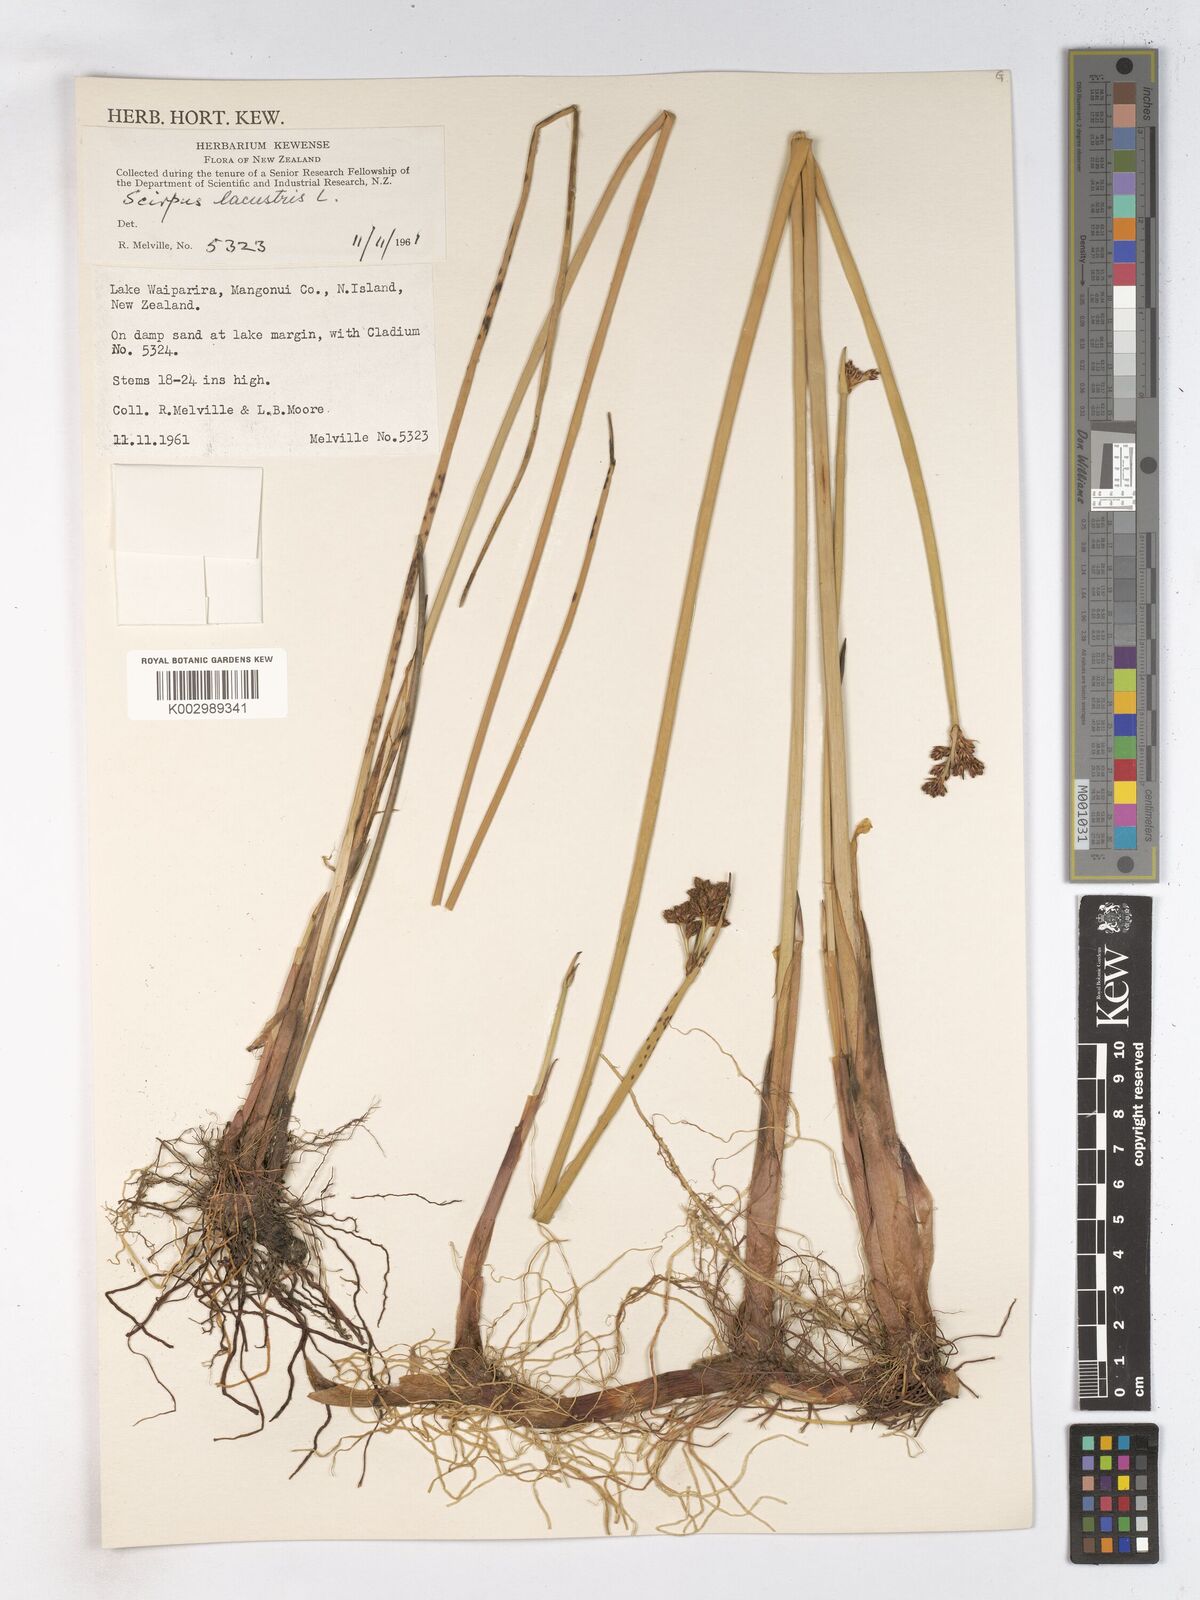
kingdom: Plantae
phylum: Tracheophyta
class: Liliopsida
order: Poales
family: Cyperaceae
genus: Schoenoplectus
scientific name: Schoenoplectus lacustris
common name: Common club-rush
